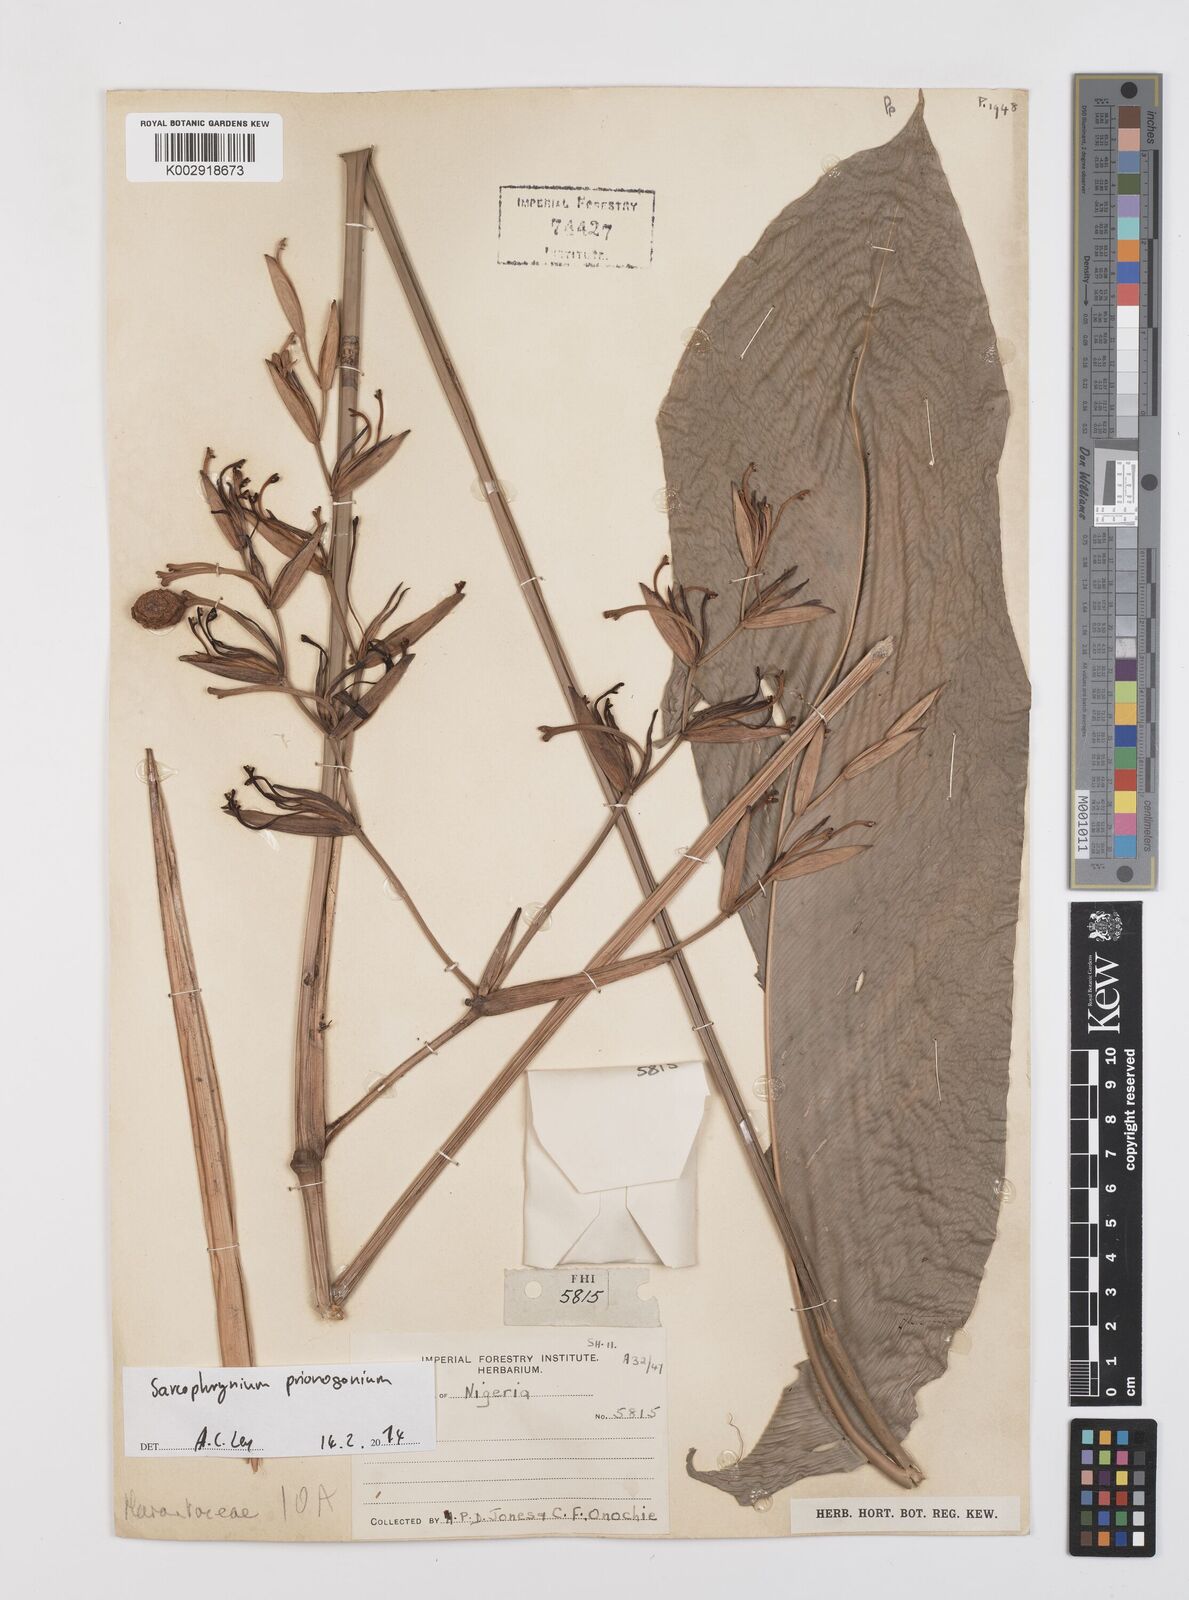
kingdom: Plantae
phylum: Tracheophyta
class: Liliopsida
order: Zingiberales
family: Marantaceae
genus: Sarcophrynium
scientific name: Sarcophrynium prionogonium
